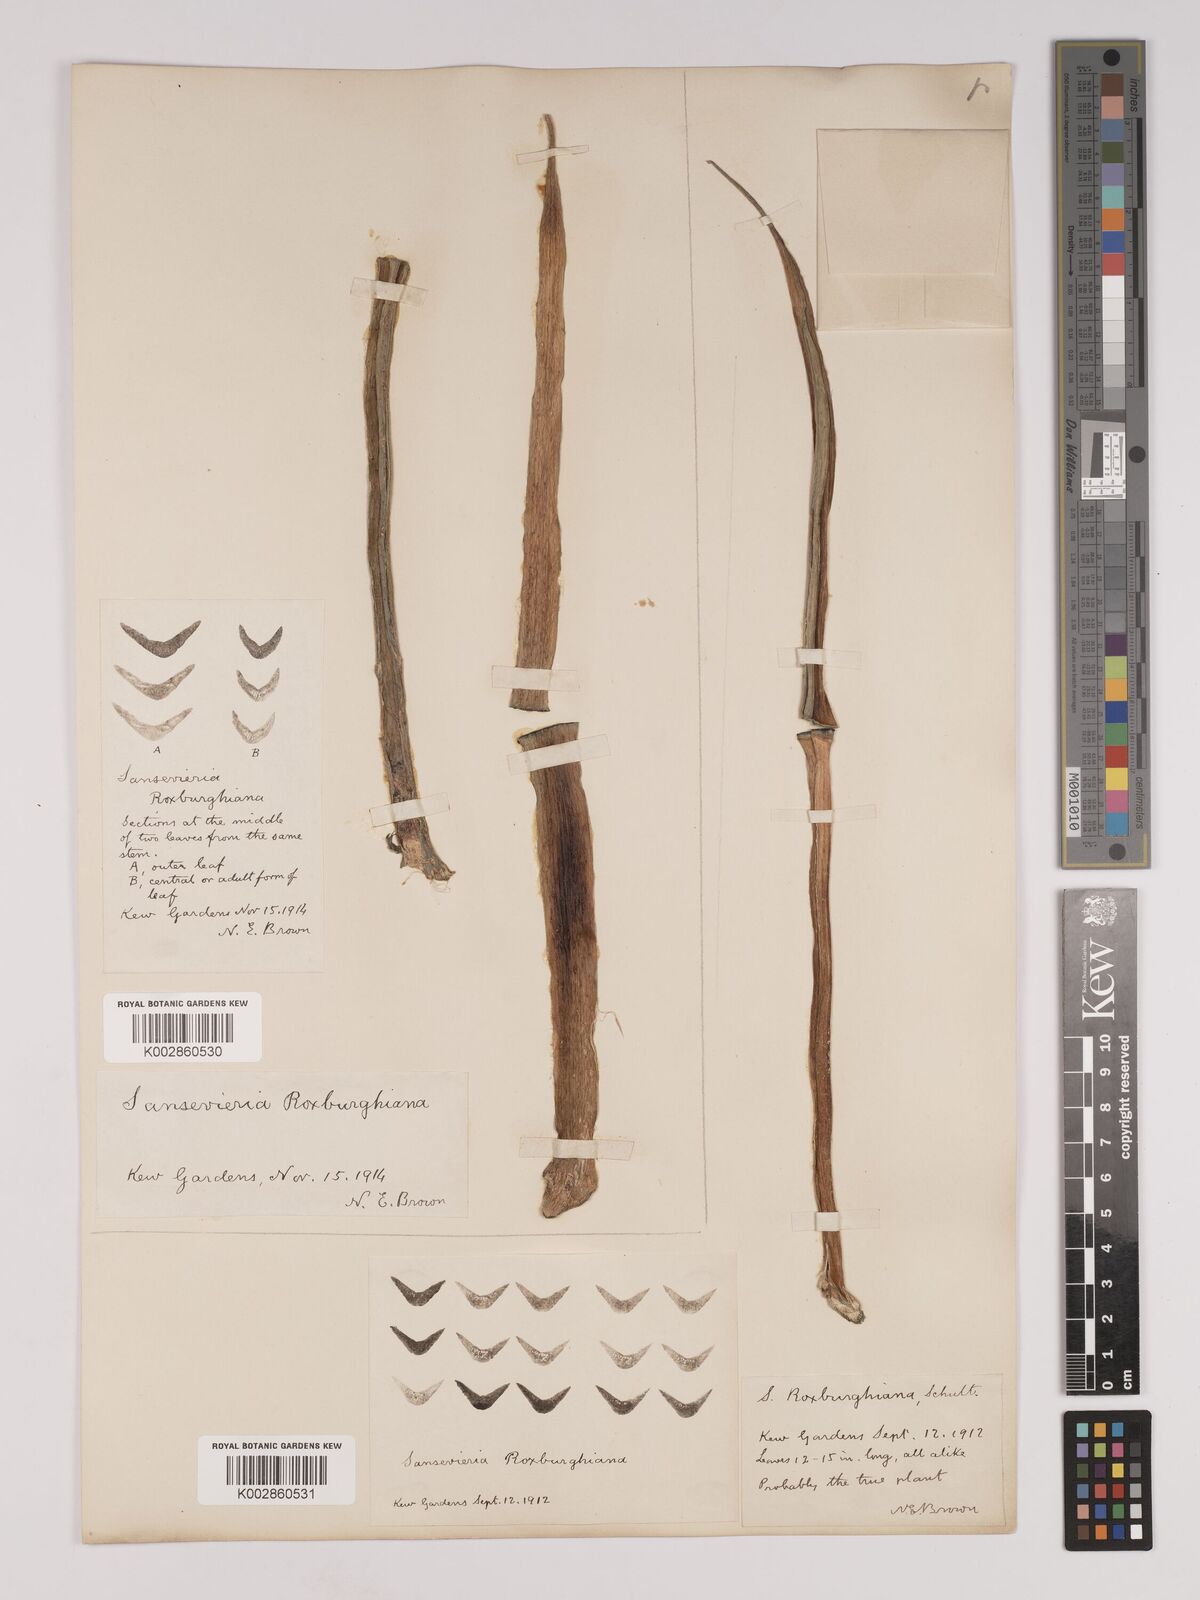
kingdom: Plantae
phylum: Tracheophyta
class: Liliopsida
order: Asparagales
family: Asparagaceae
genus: Dracaena
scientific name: Dracaena roxburghiana
